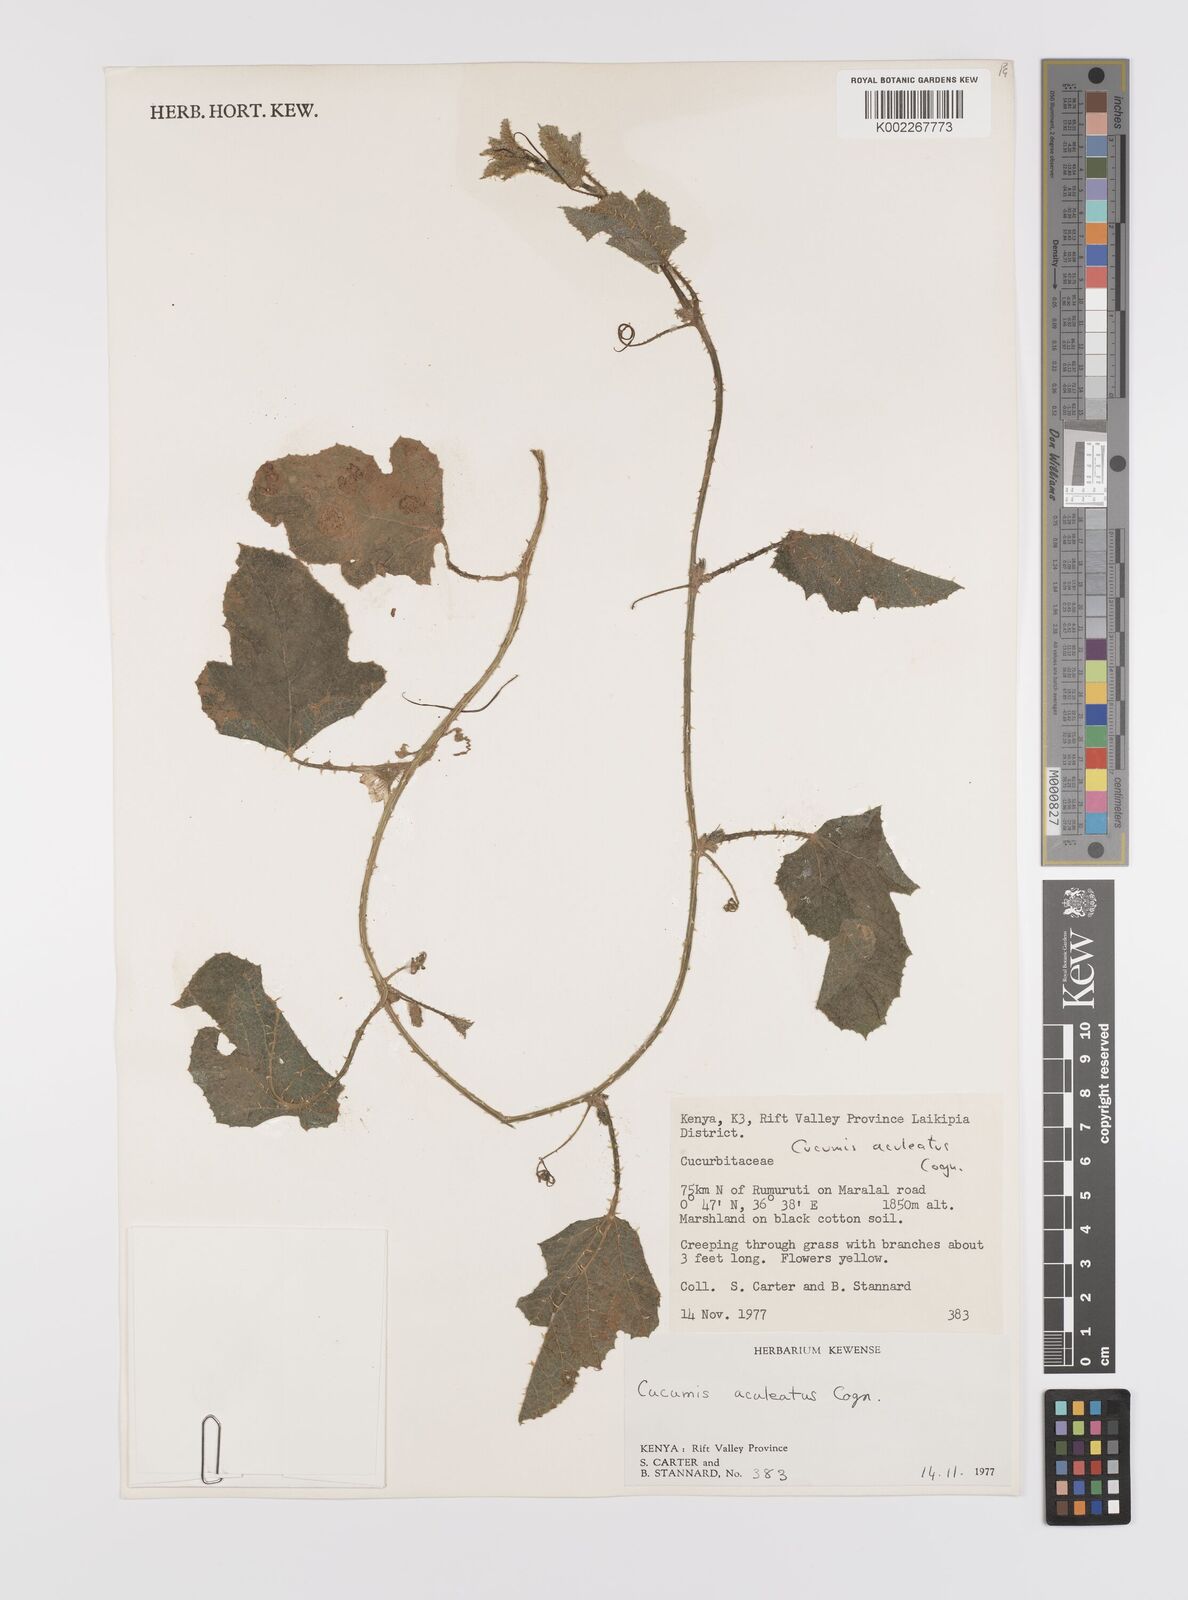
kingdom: Plantae
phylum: Tracheophyta
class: Magnoliopsida
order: Cucurbitales
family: Cucurbitaceae
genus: Cucumis
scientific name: Cucumis aculeatus
